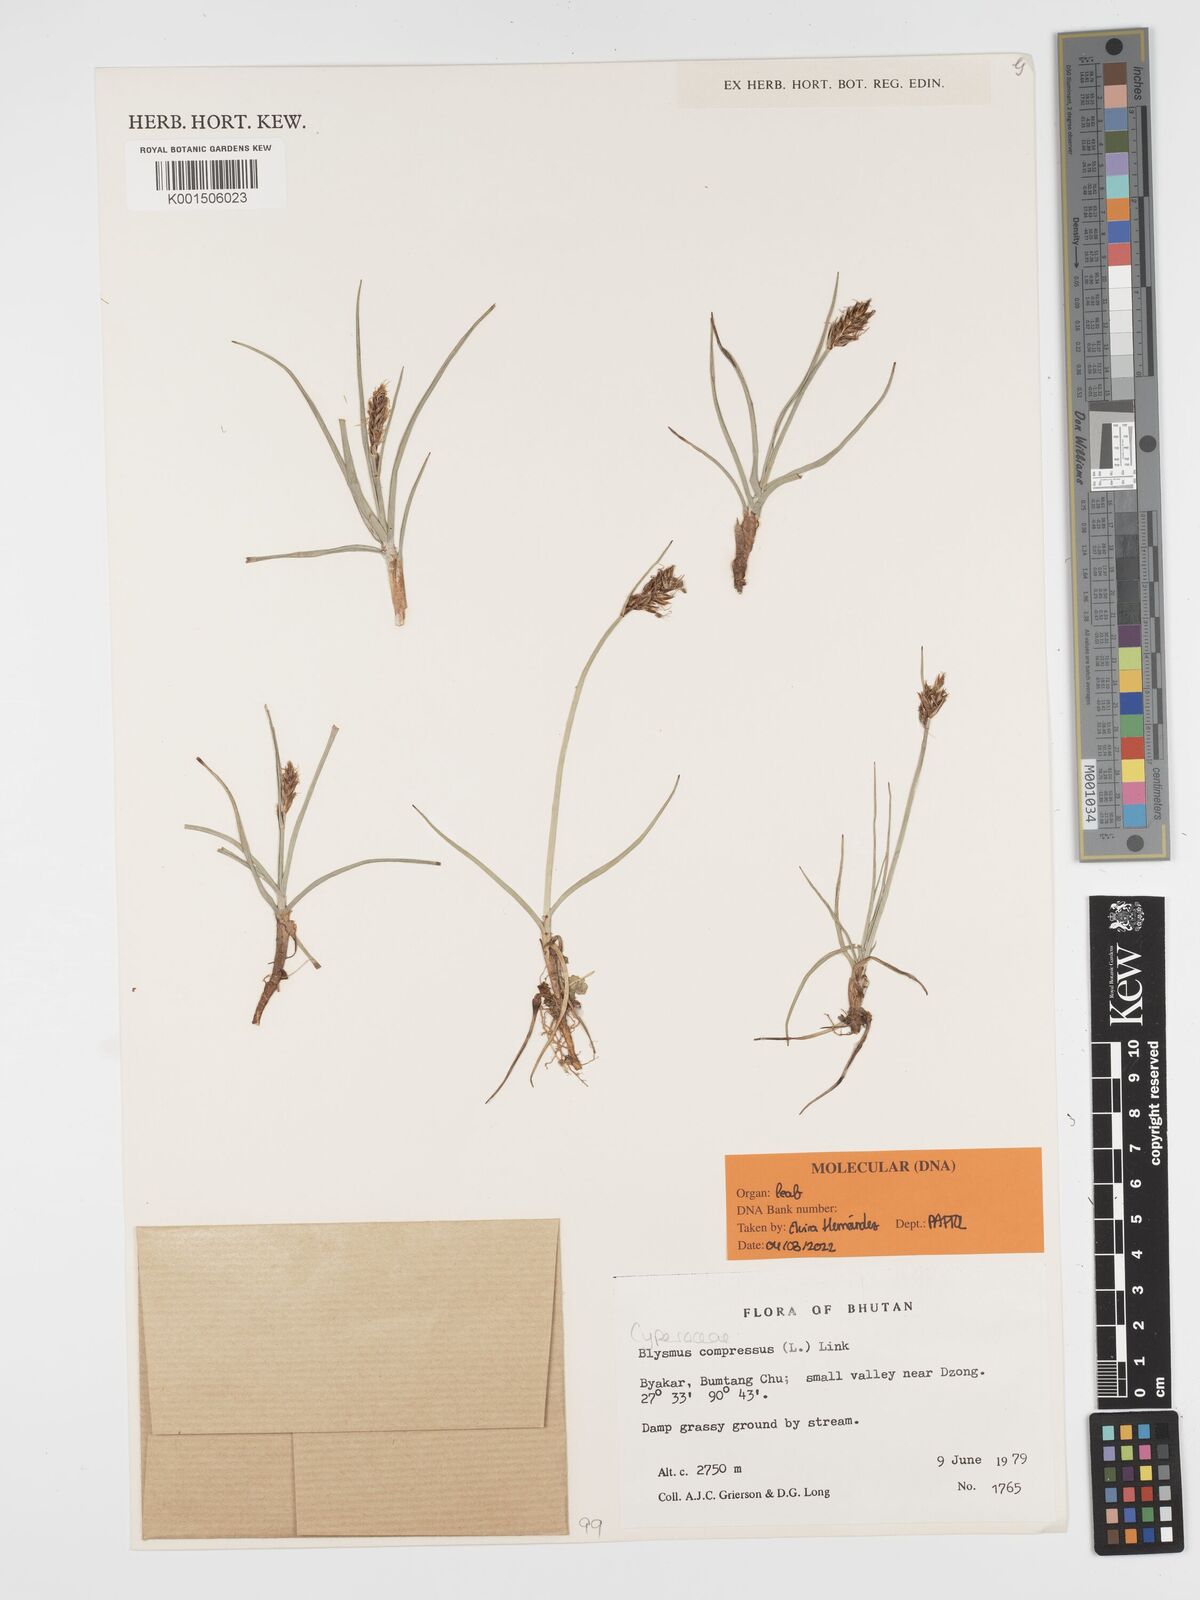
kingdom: Plantae
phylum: Tracheophyta
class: Liliopsida
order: Poales
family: Cyperaceae
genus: Blysmus
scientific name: Blysmus compressus
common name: Flat-sedge
